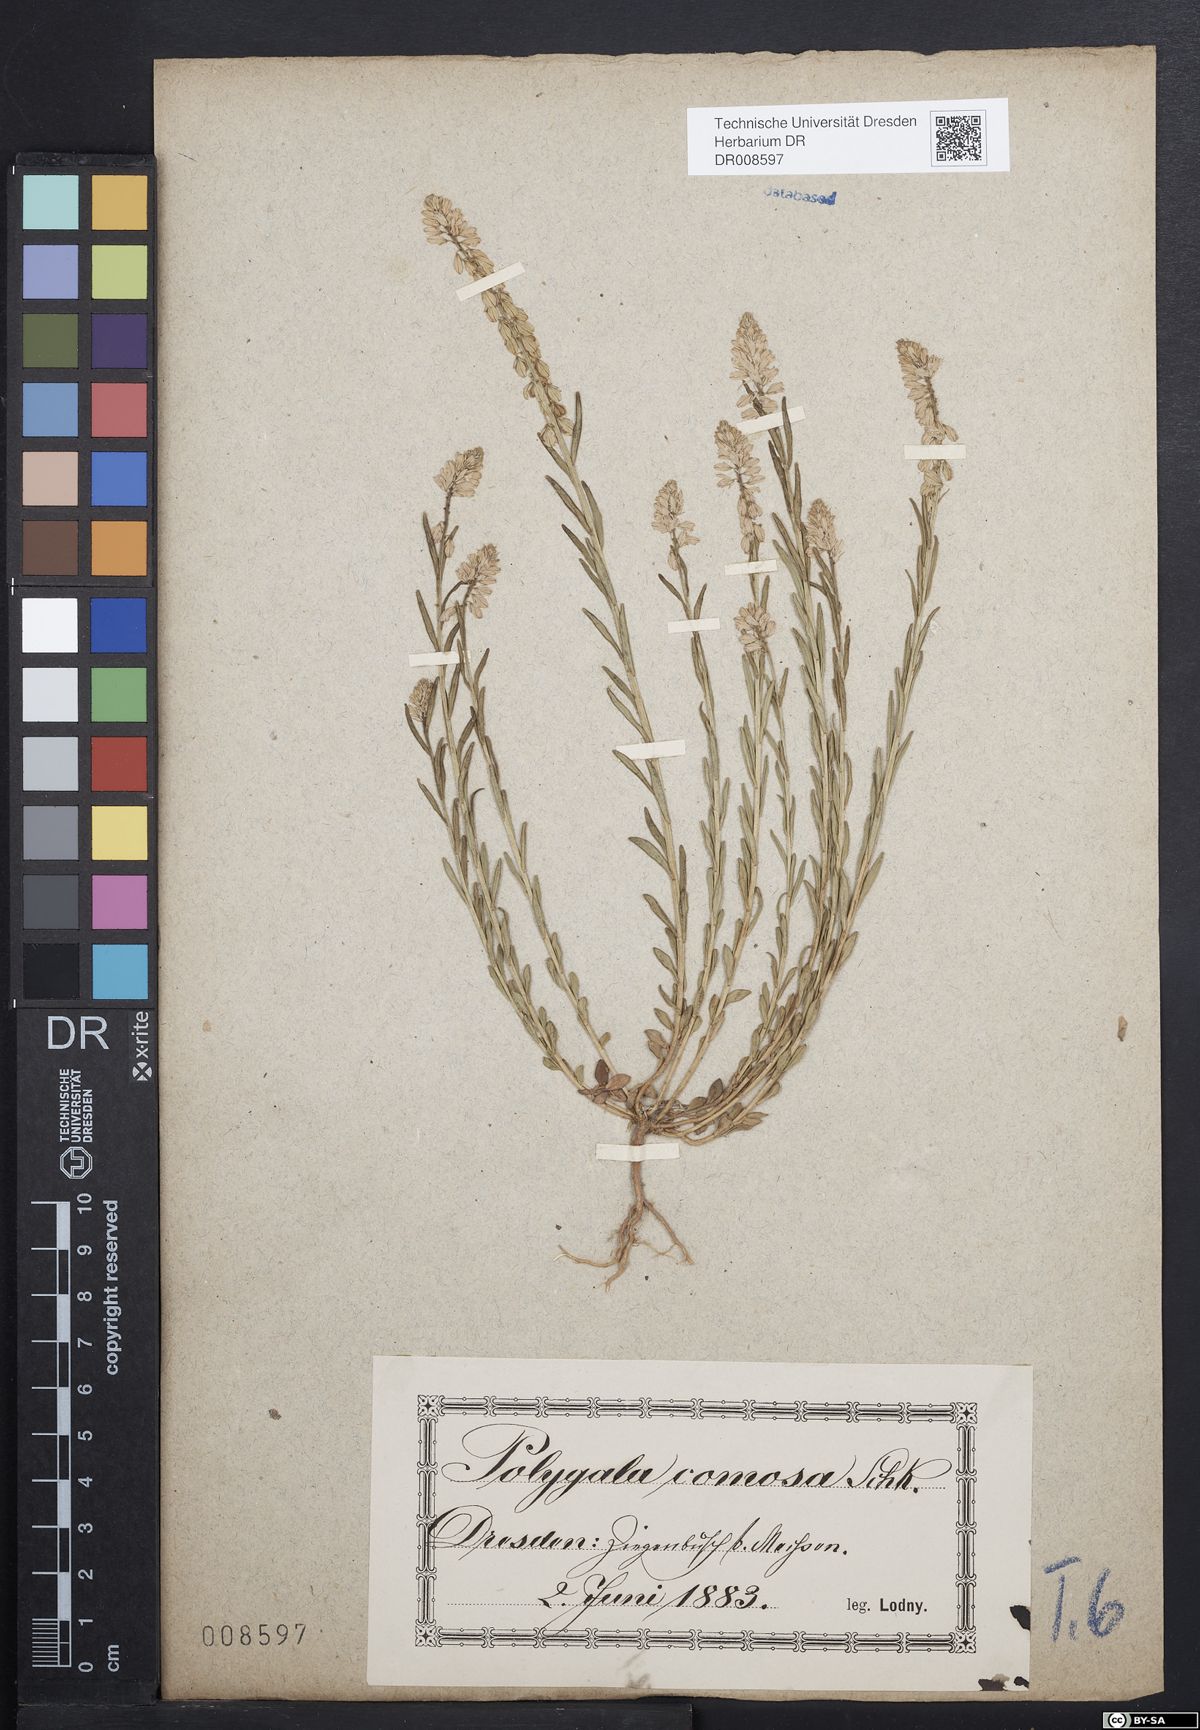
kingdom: Plantae
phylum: Tracheophyta
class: Magnoliopsida
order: Fabales
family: Polygalaceae
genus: Polygala
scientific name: Polygala comosa
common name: Tufted milkwort
